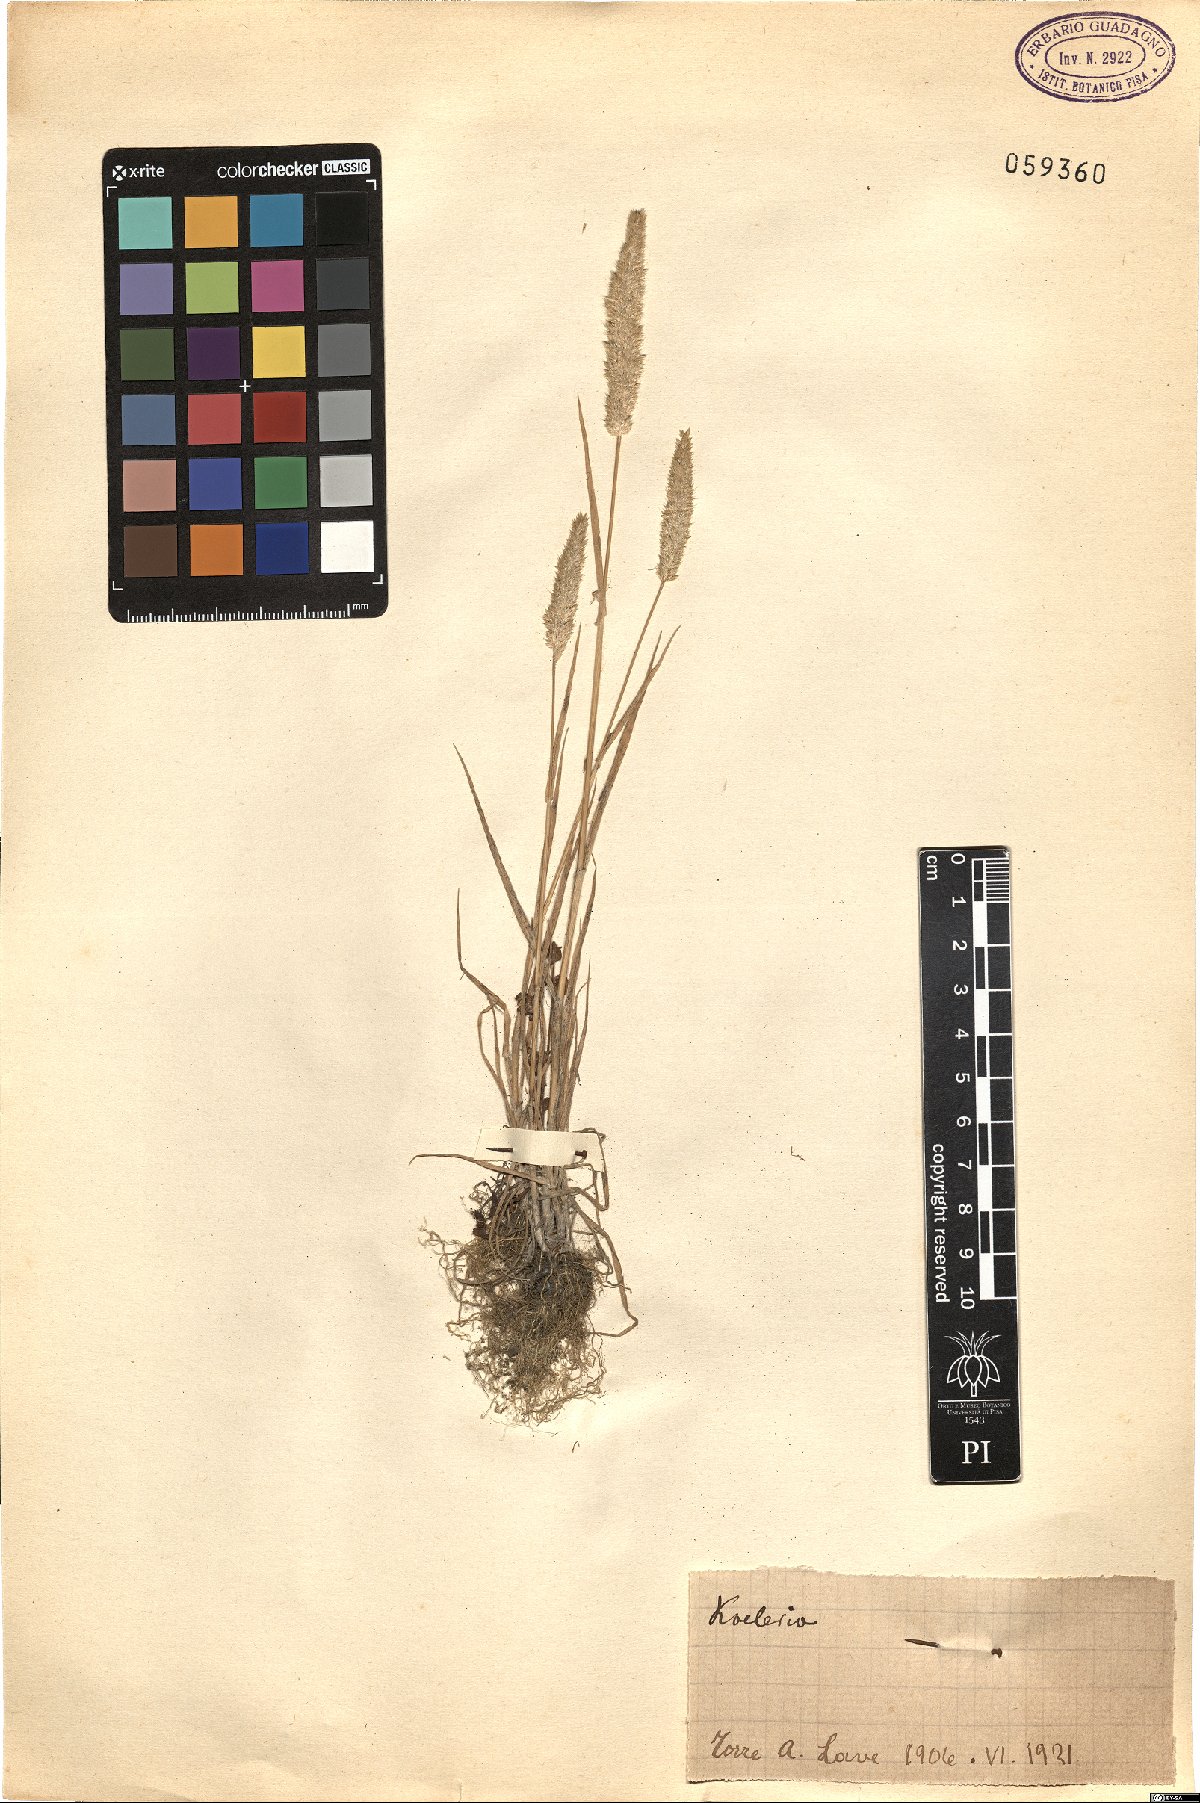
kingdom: Plantae
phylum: Tracheophyta
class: Liliopsida
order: Poales
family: Poaceae
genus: Koeleria
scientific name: Koeleria
